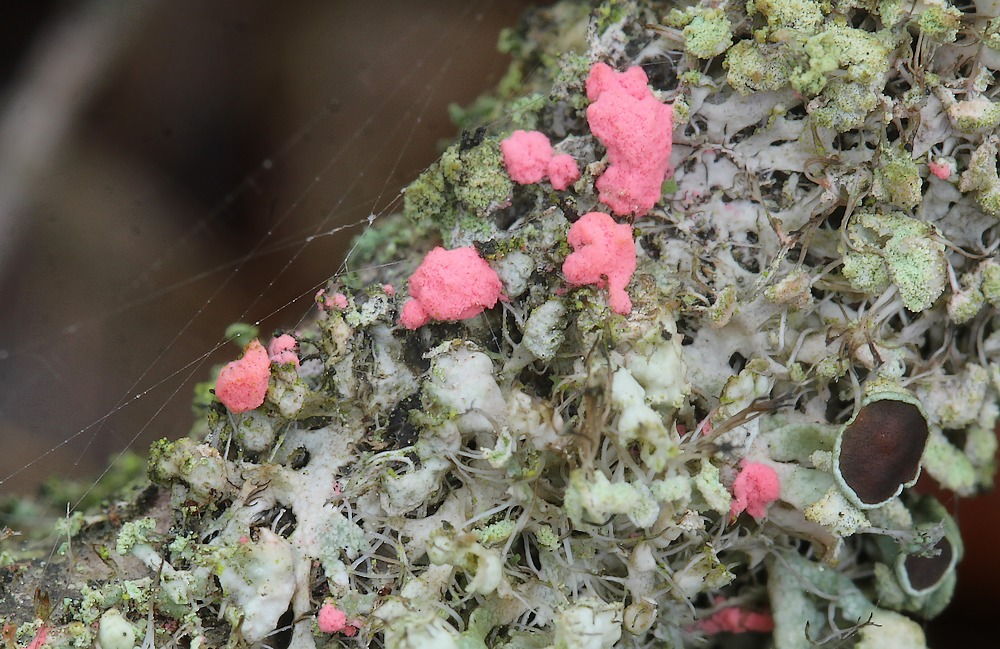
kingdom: Fungi
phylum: Ascomycota
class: Sordariomycetes
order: Hypocreales
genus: Illosporiopsis
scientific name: Illosporiopsis christiansenii
